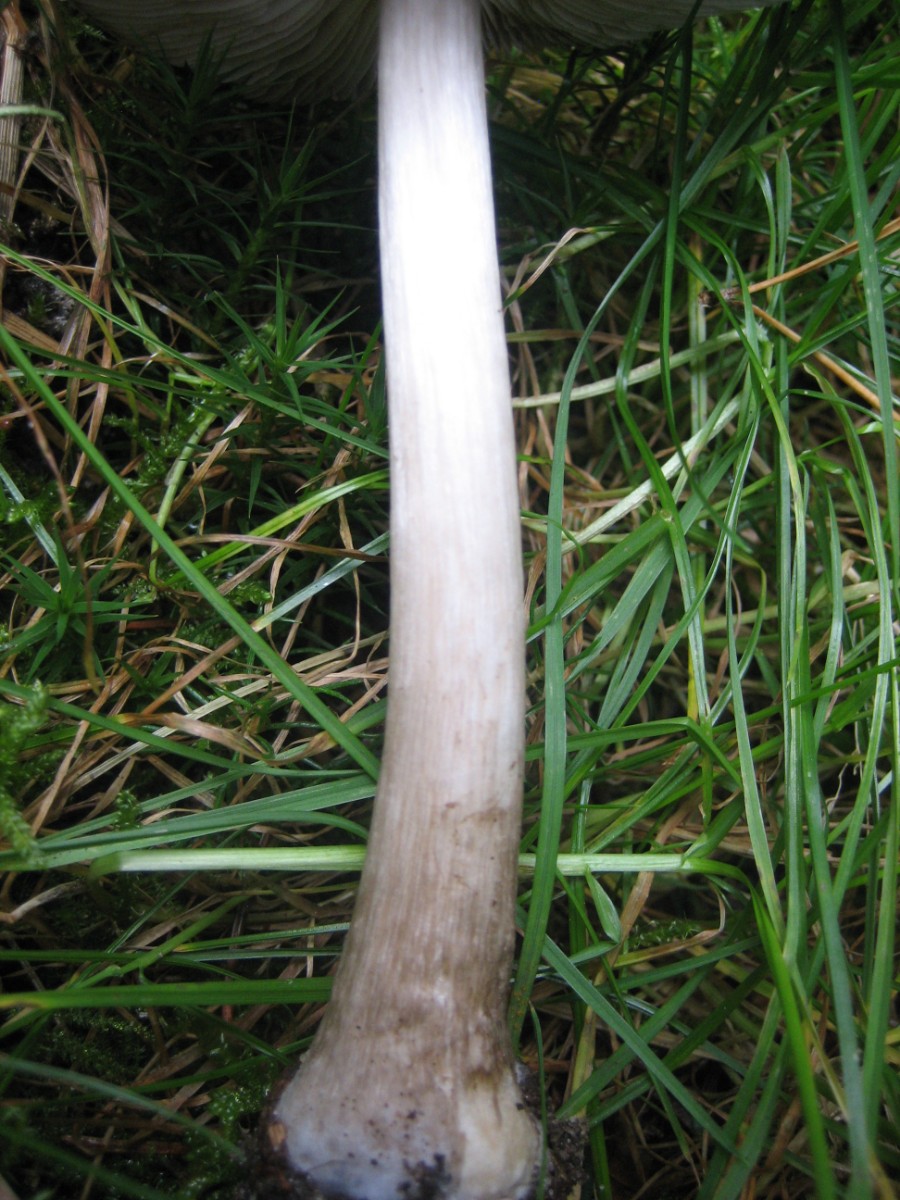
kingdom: Fungi
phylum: Basidiomycota
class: Agaricomycetes
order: Agaricales
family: Pluteaceae
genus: Pluteus
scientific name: Pluteus pouzarianus
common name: plantage-skærmhat
